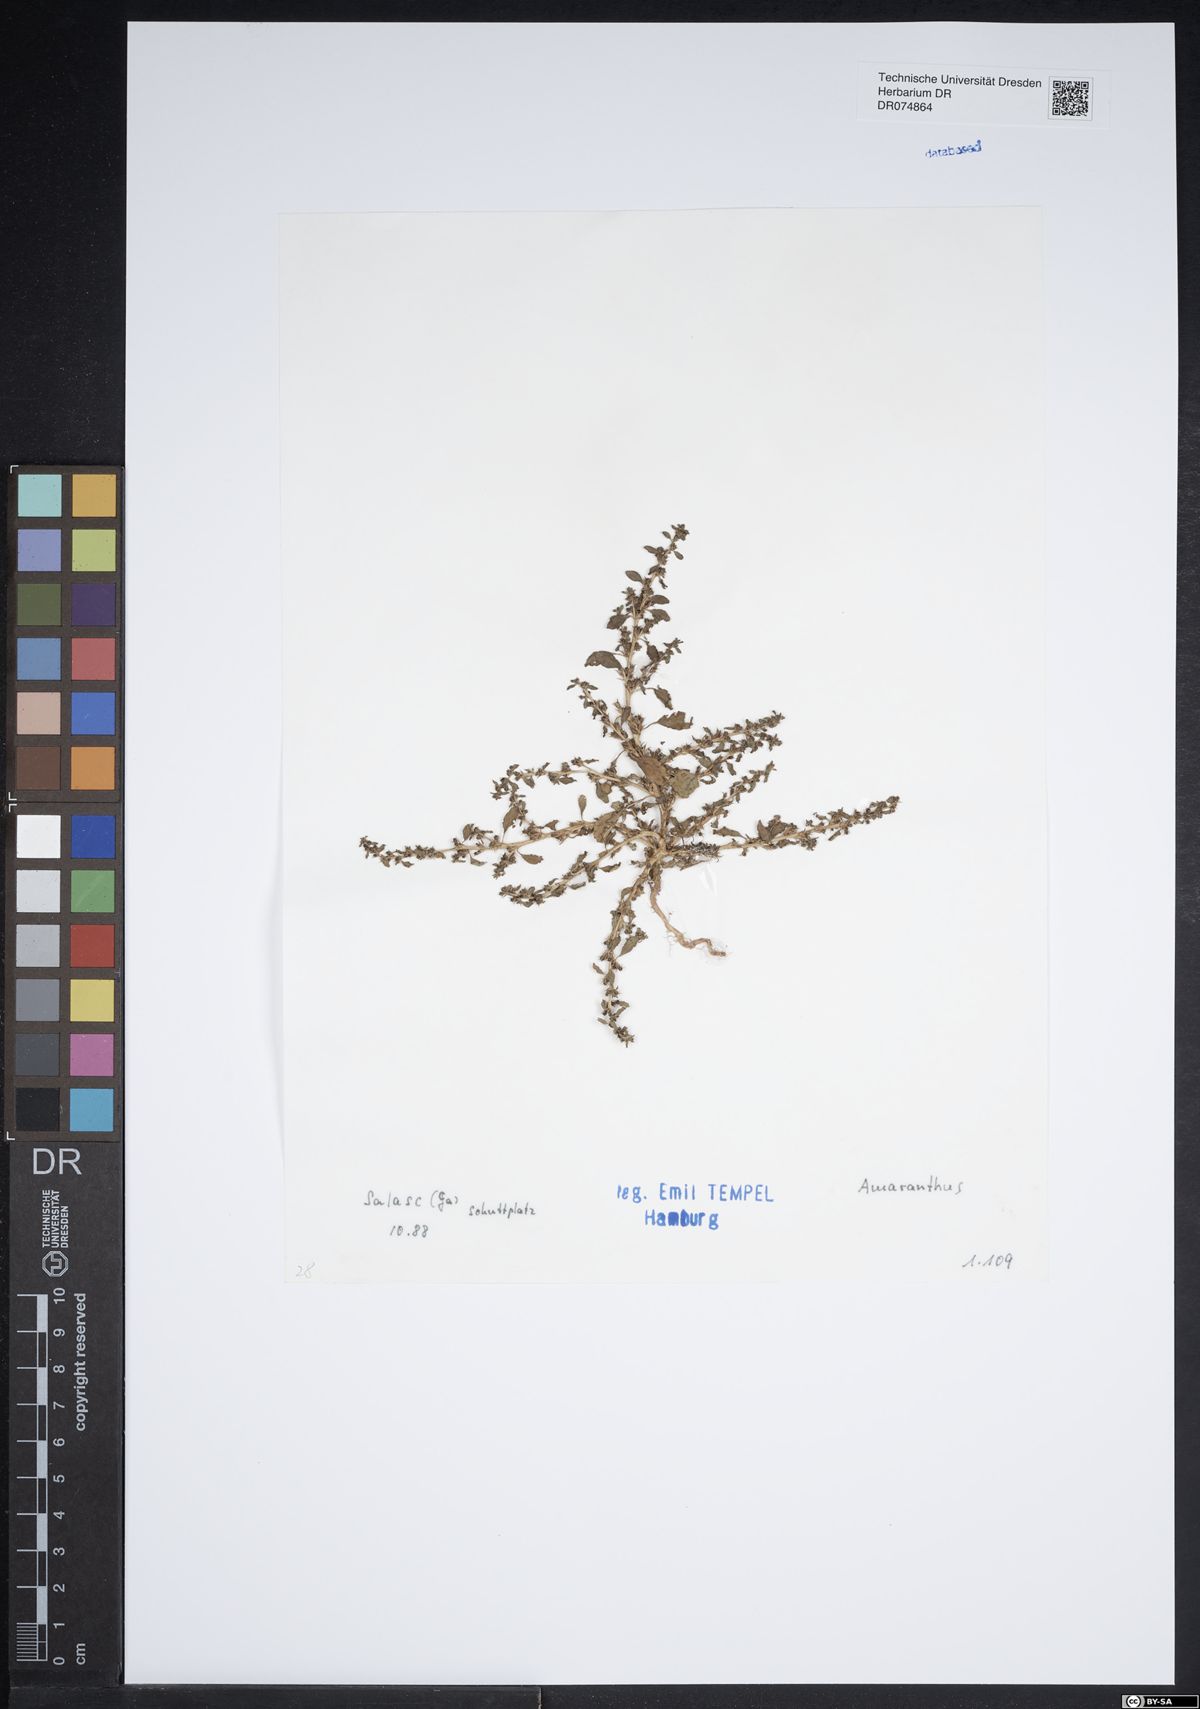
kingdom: Plantae
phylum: Tracheophyta
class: Magnoliopsida
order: Caryophyllales
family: Amaranthaceae
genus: Amaranthus
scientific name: Amaranthus
